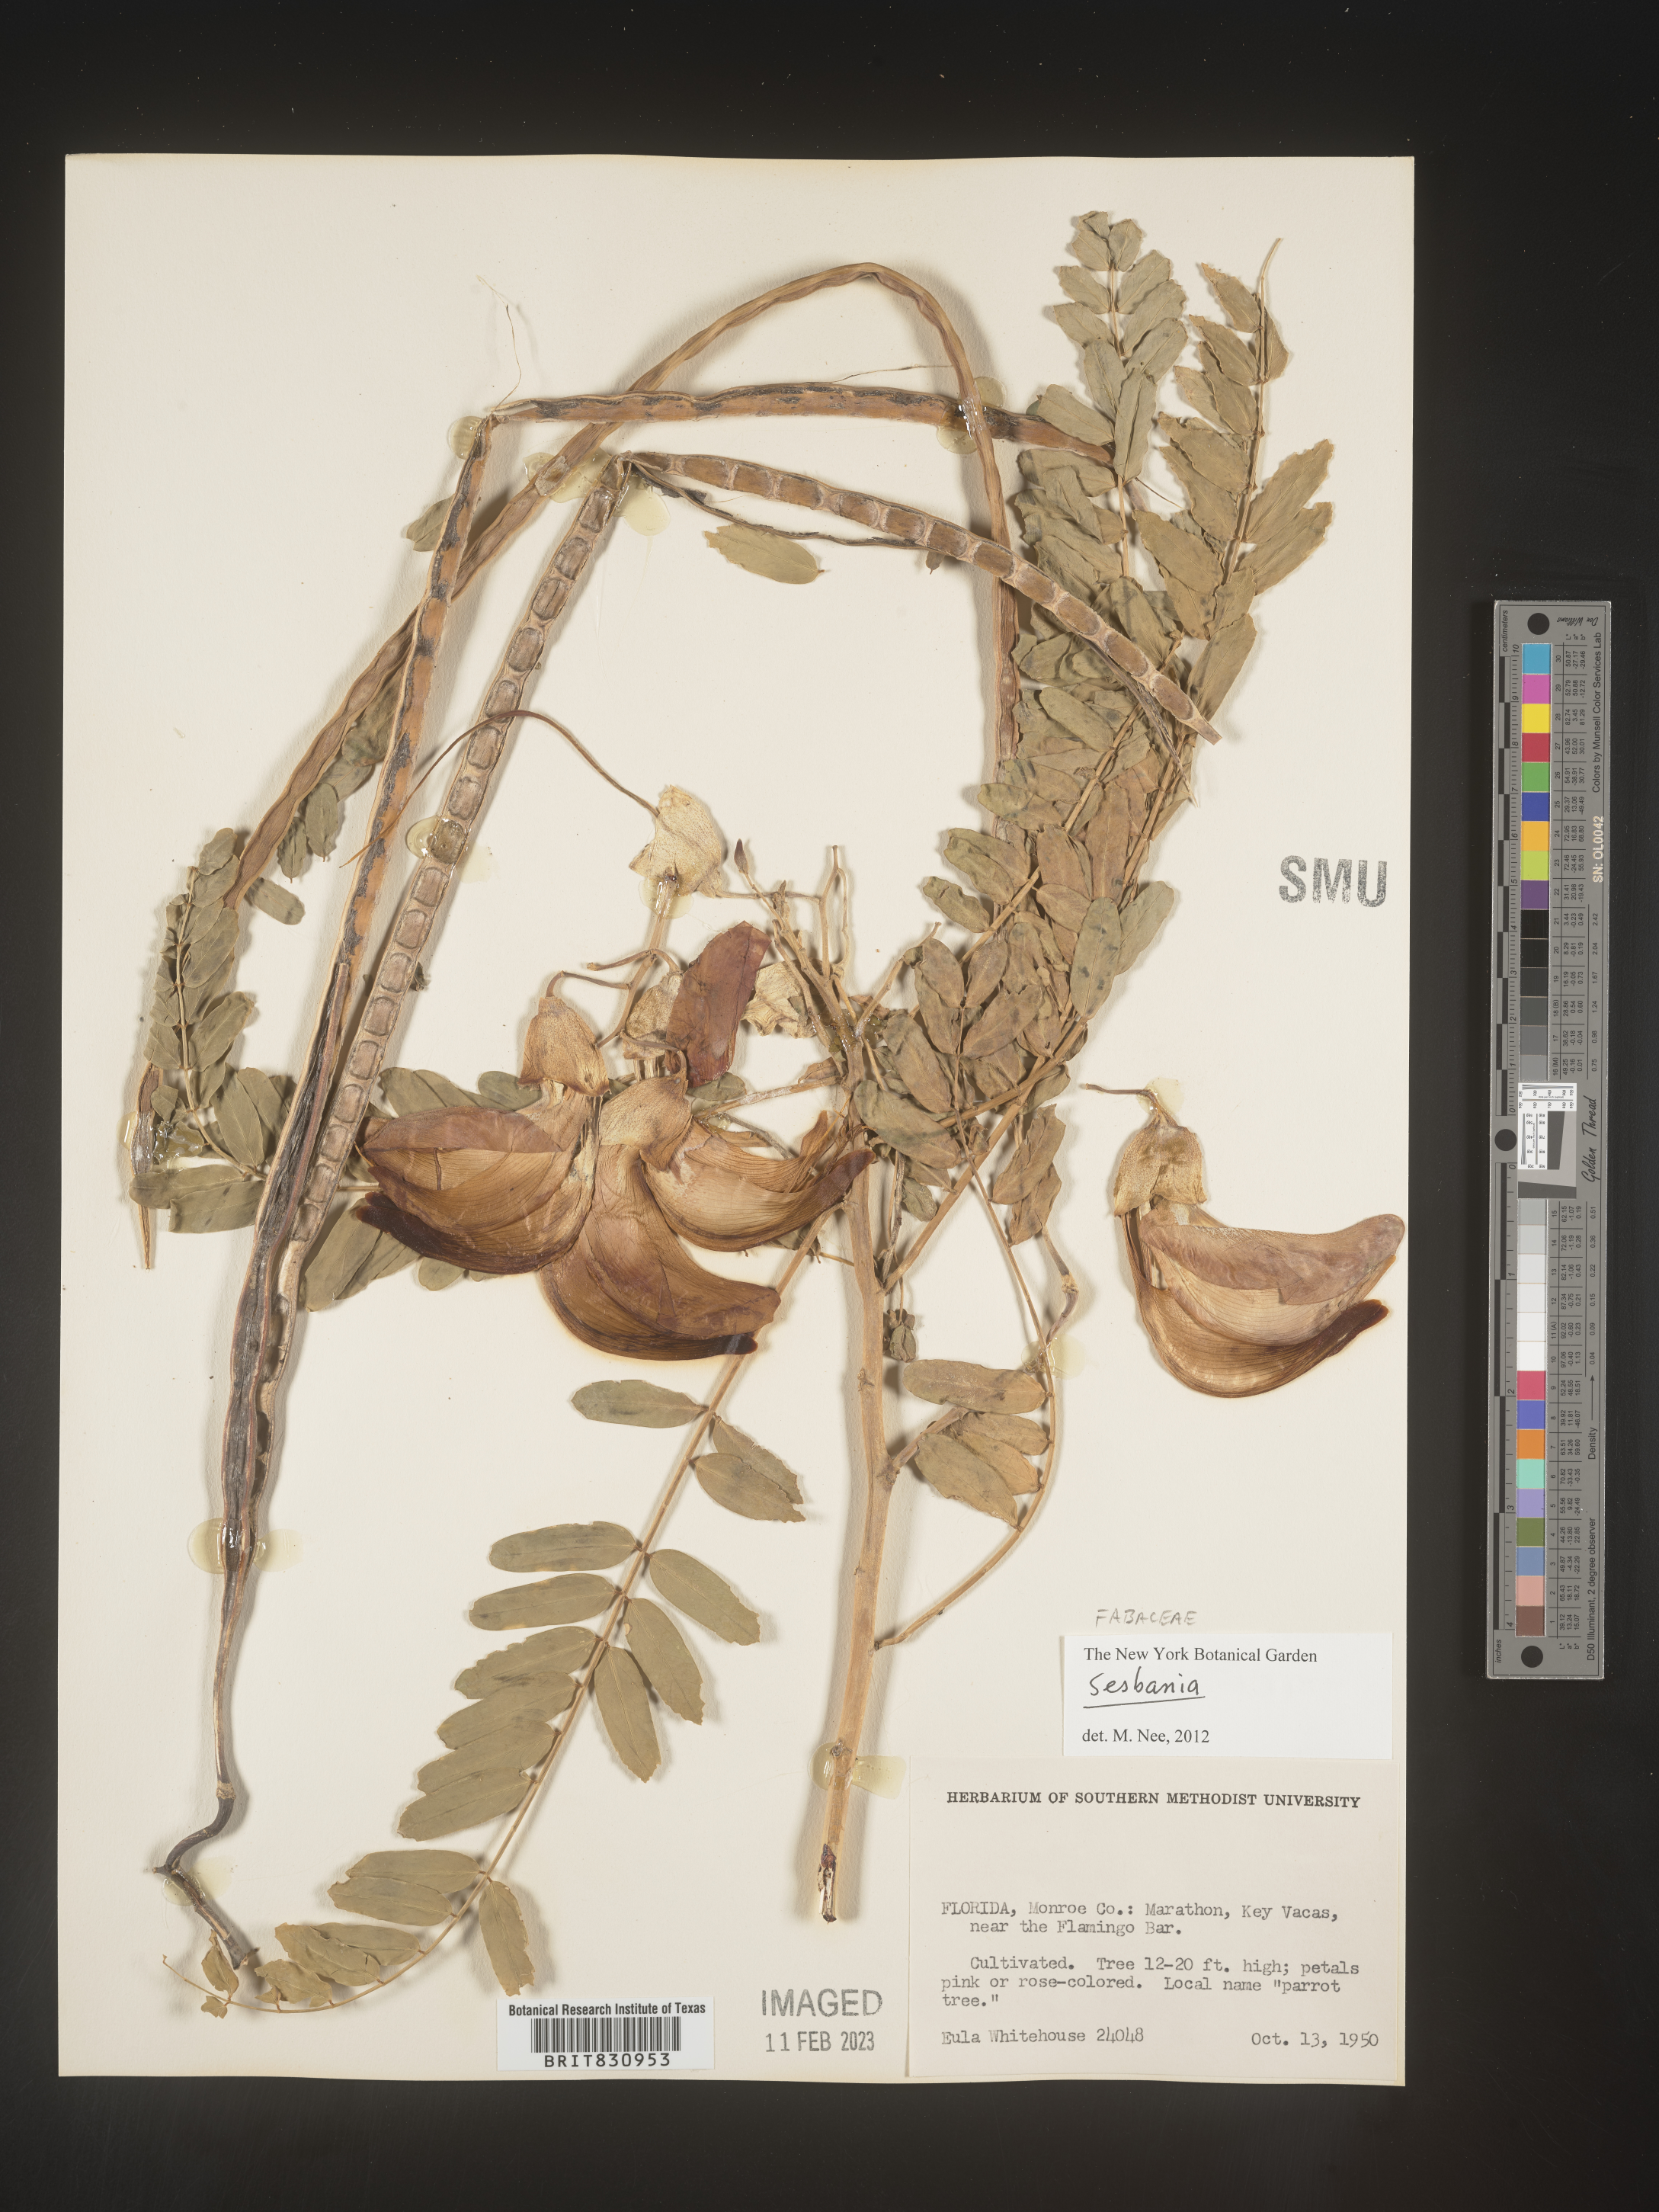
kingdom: Plantae
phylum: Tracheophyta
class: Magnoliopsida
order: Fabales
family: Fabaceae
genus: Sesbania
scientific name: Sesbania
